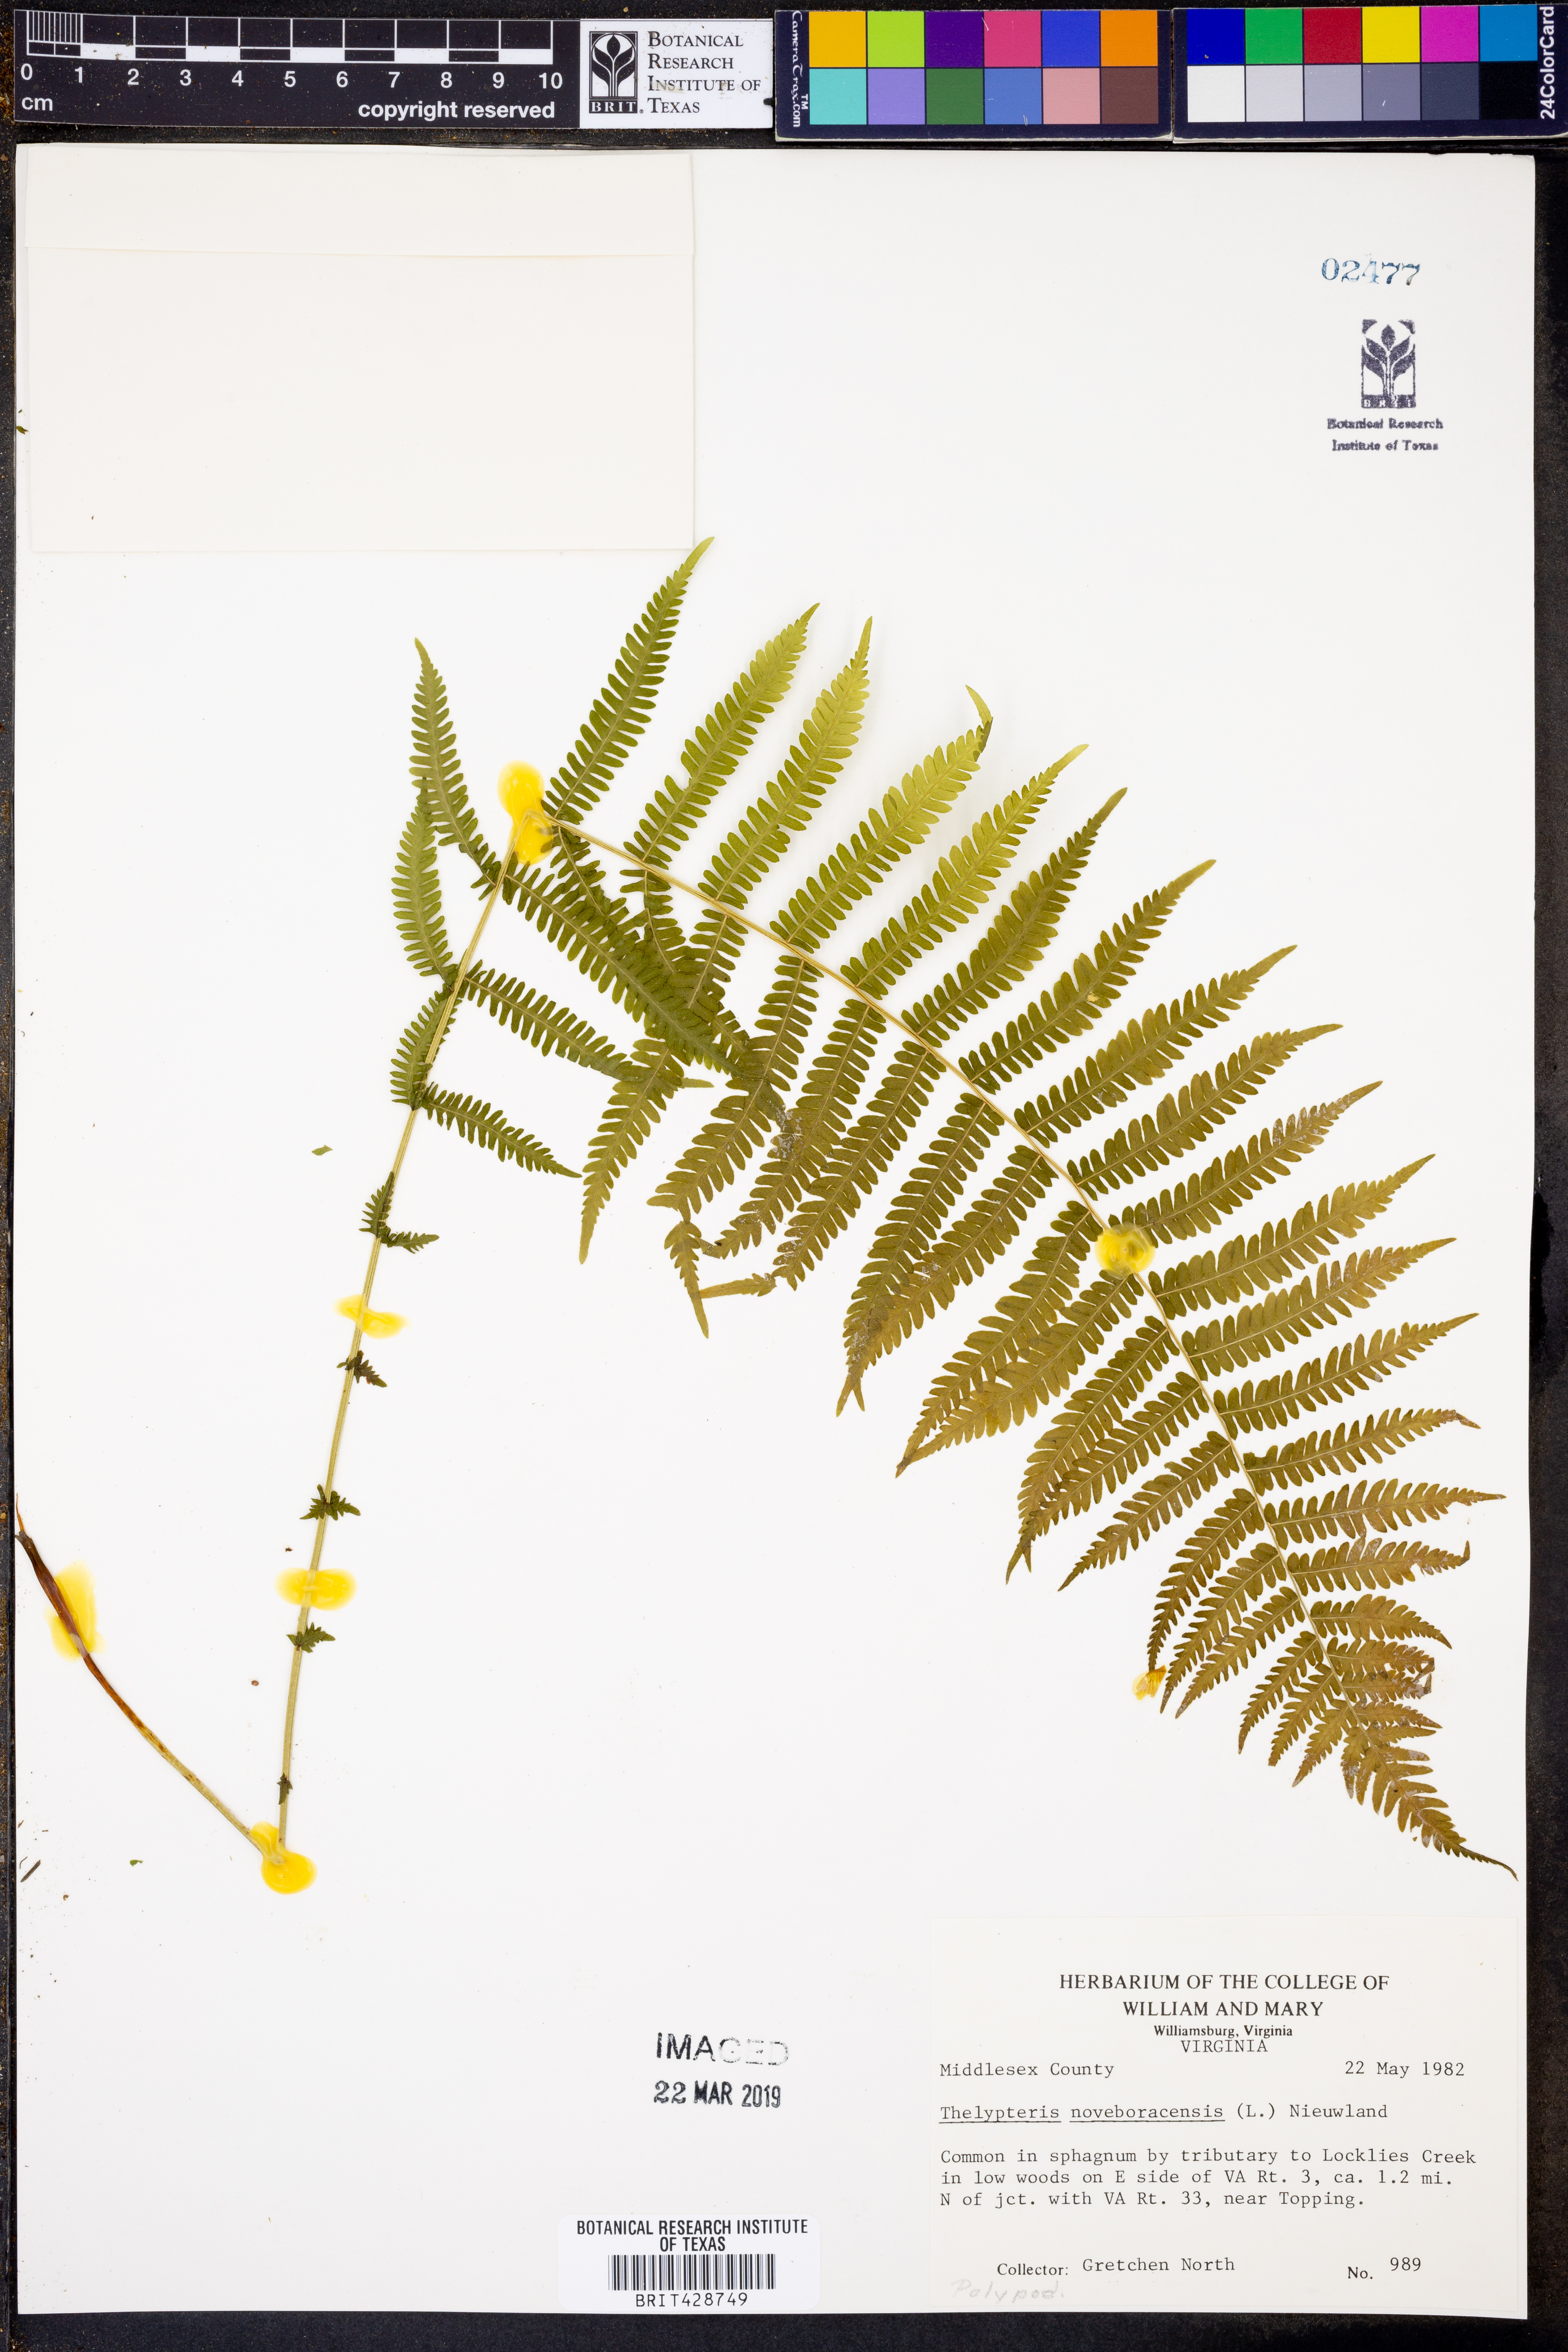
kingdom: Plantae
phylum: Tracheophyta
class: Polypodiopsida
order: Polypodiales
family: Thelypteridaceae
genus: Amauropelta
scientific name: Amauropelta noveboracensis
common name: New york fern
